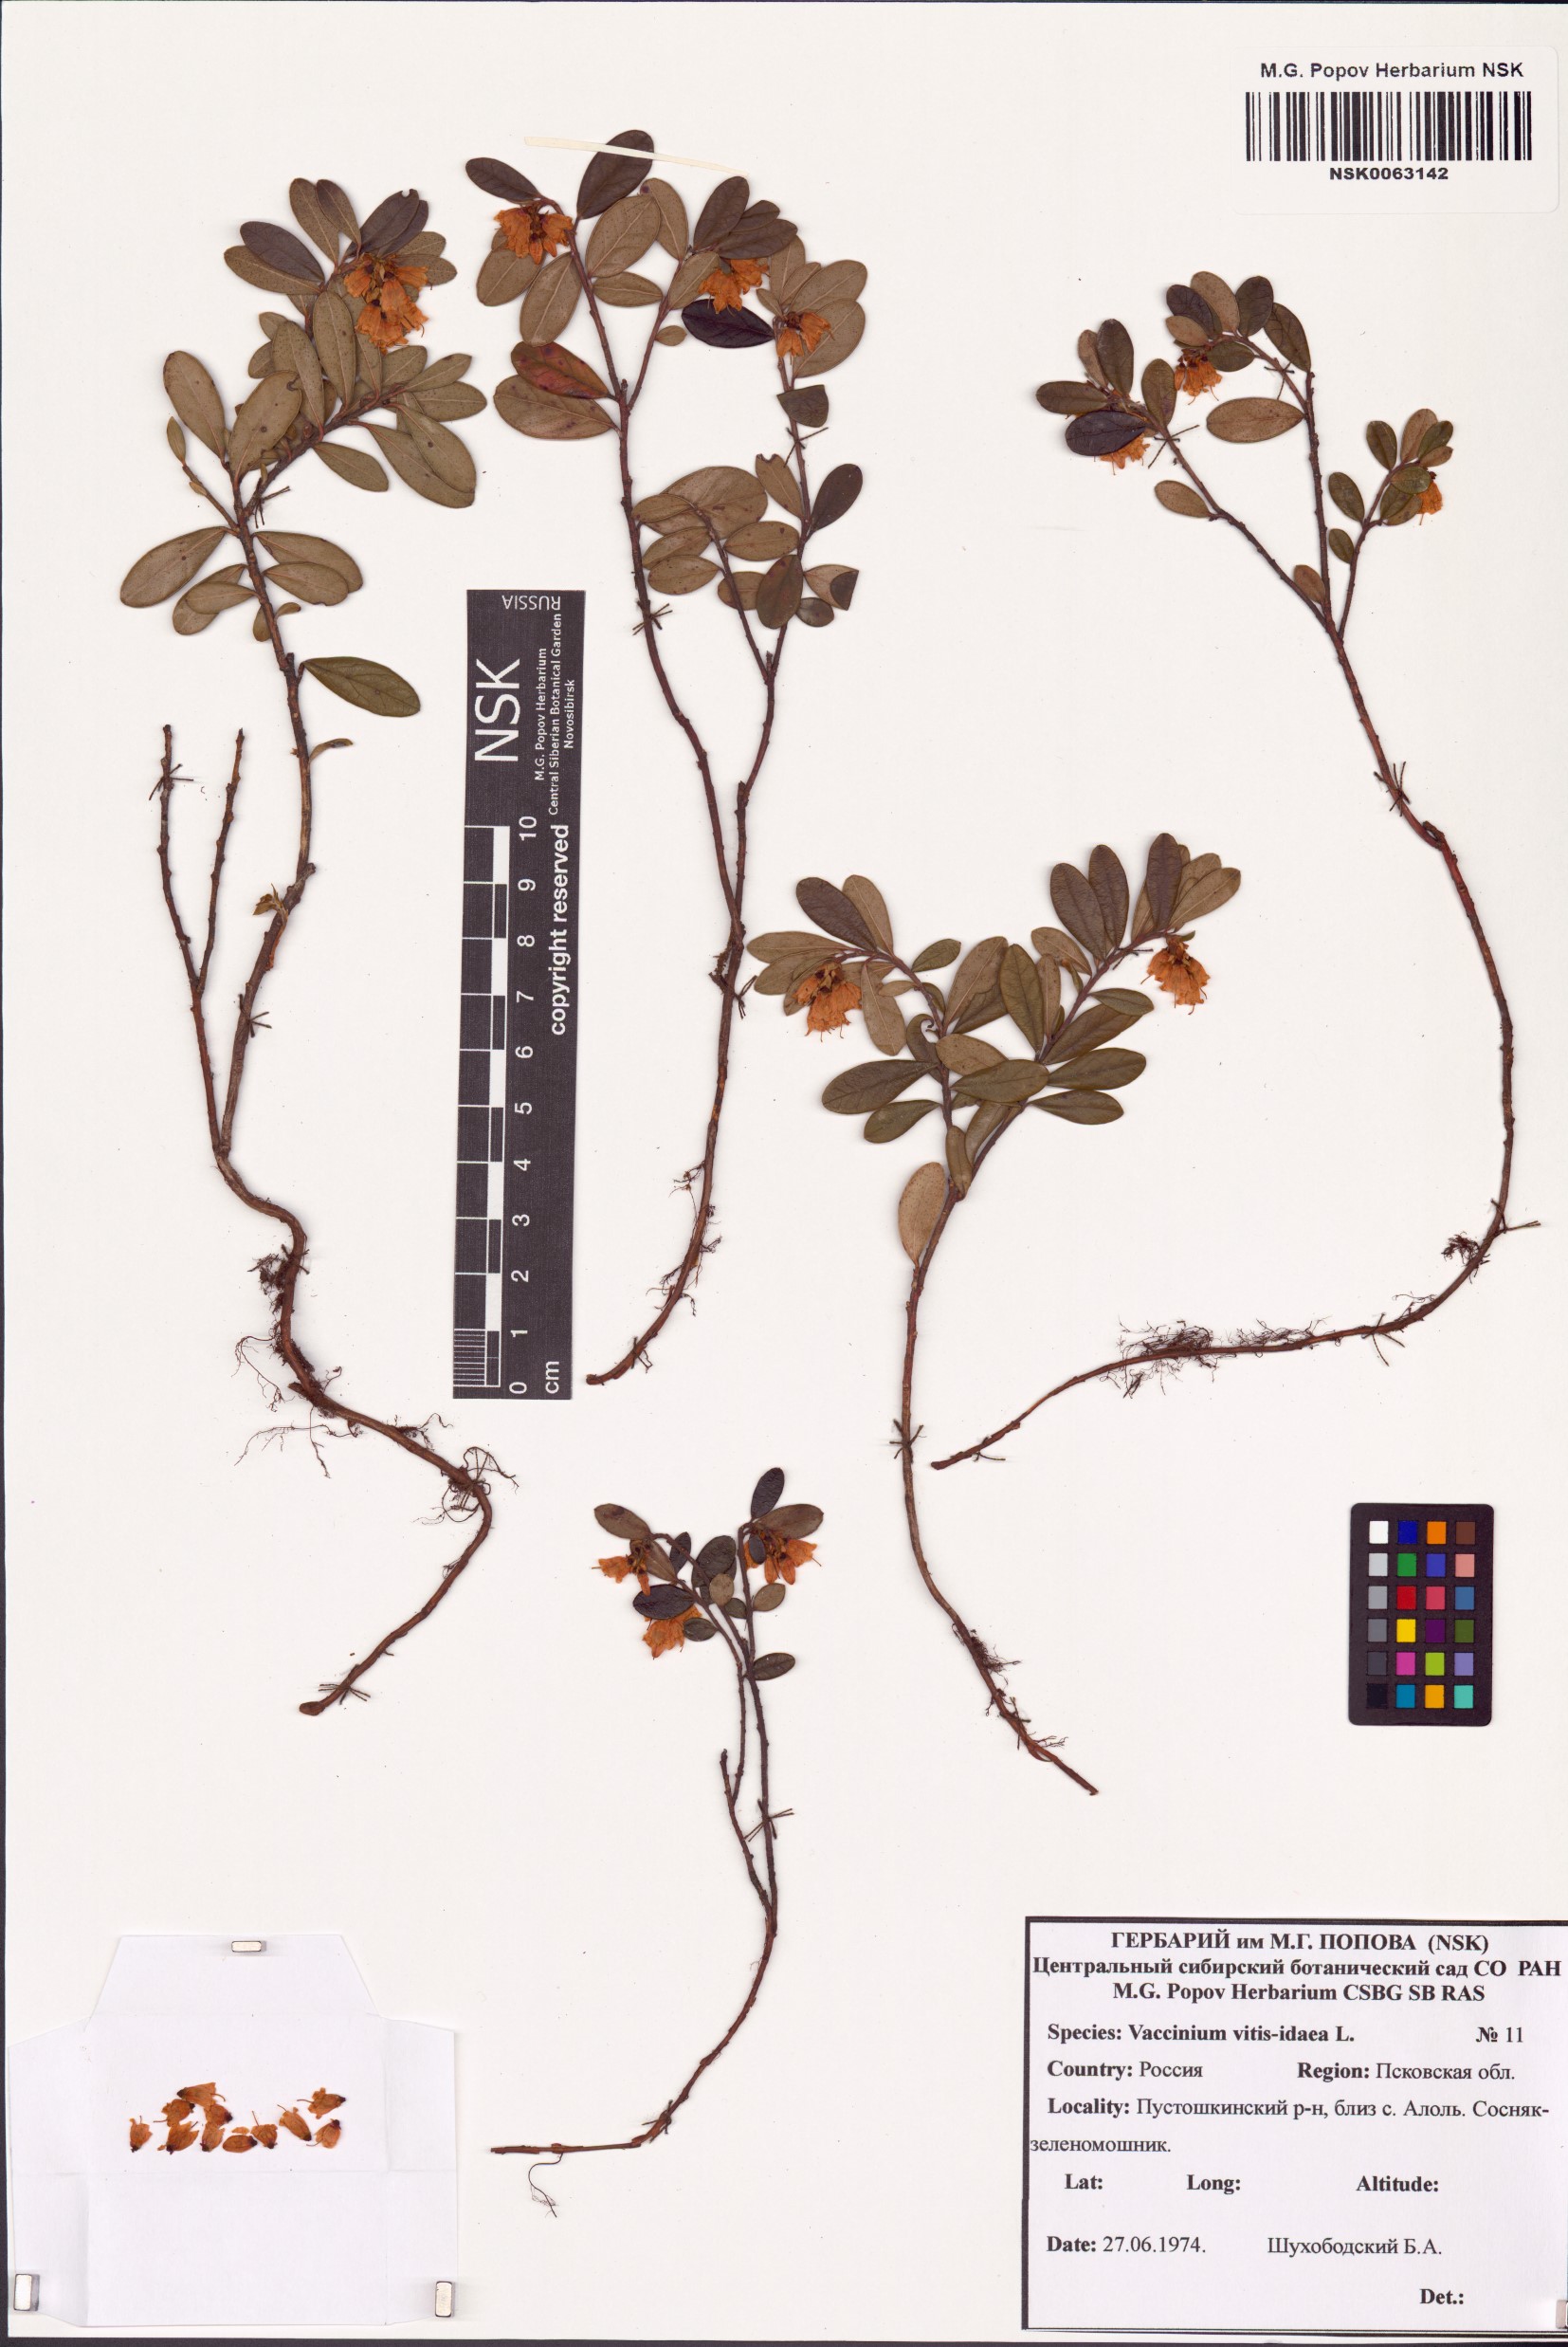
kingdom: Plantae
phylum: Tracheophyta
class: Magnoliopsida
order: Ericales
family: Ericaceae
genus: Vaccinium
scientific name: Vaccinium vitis-idaea
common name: Cowberry
